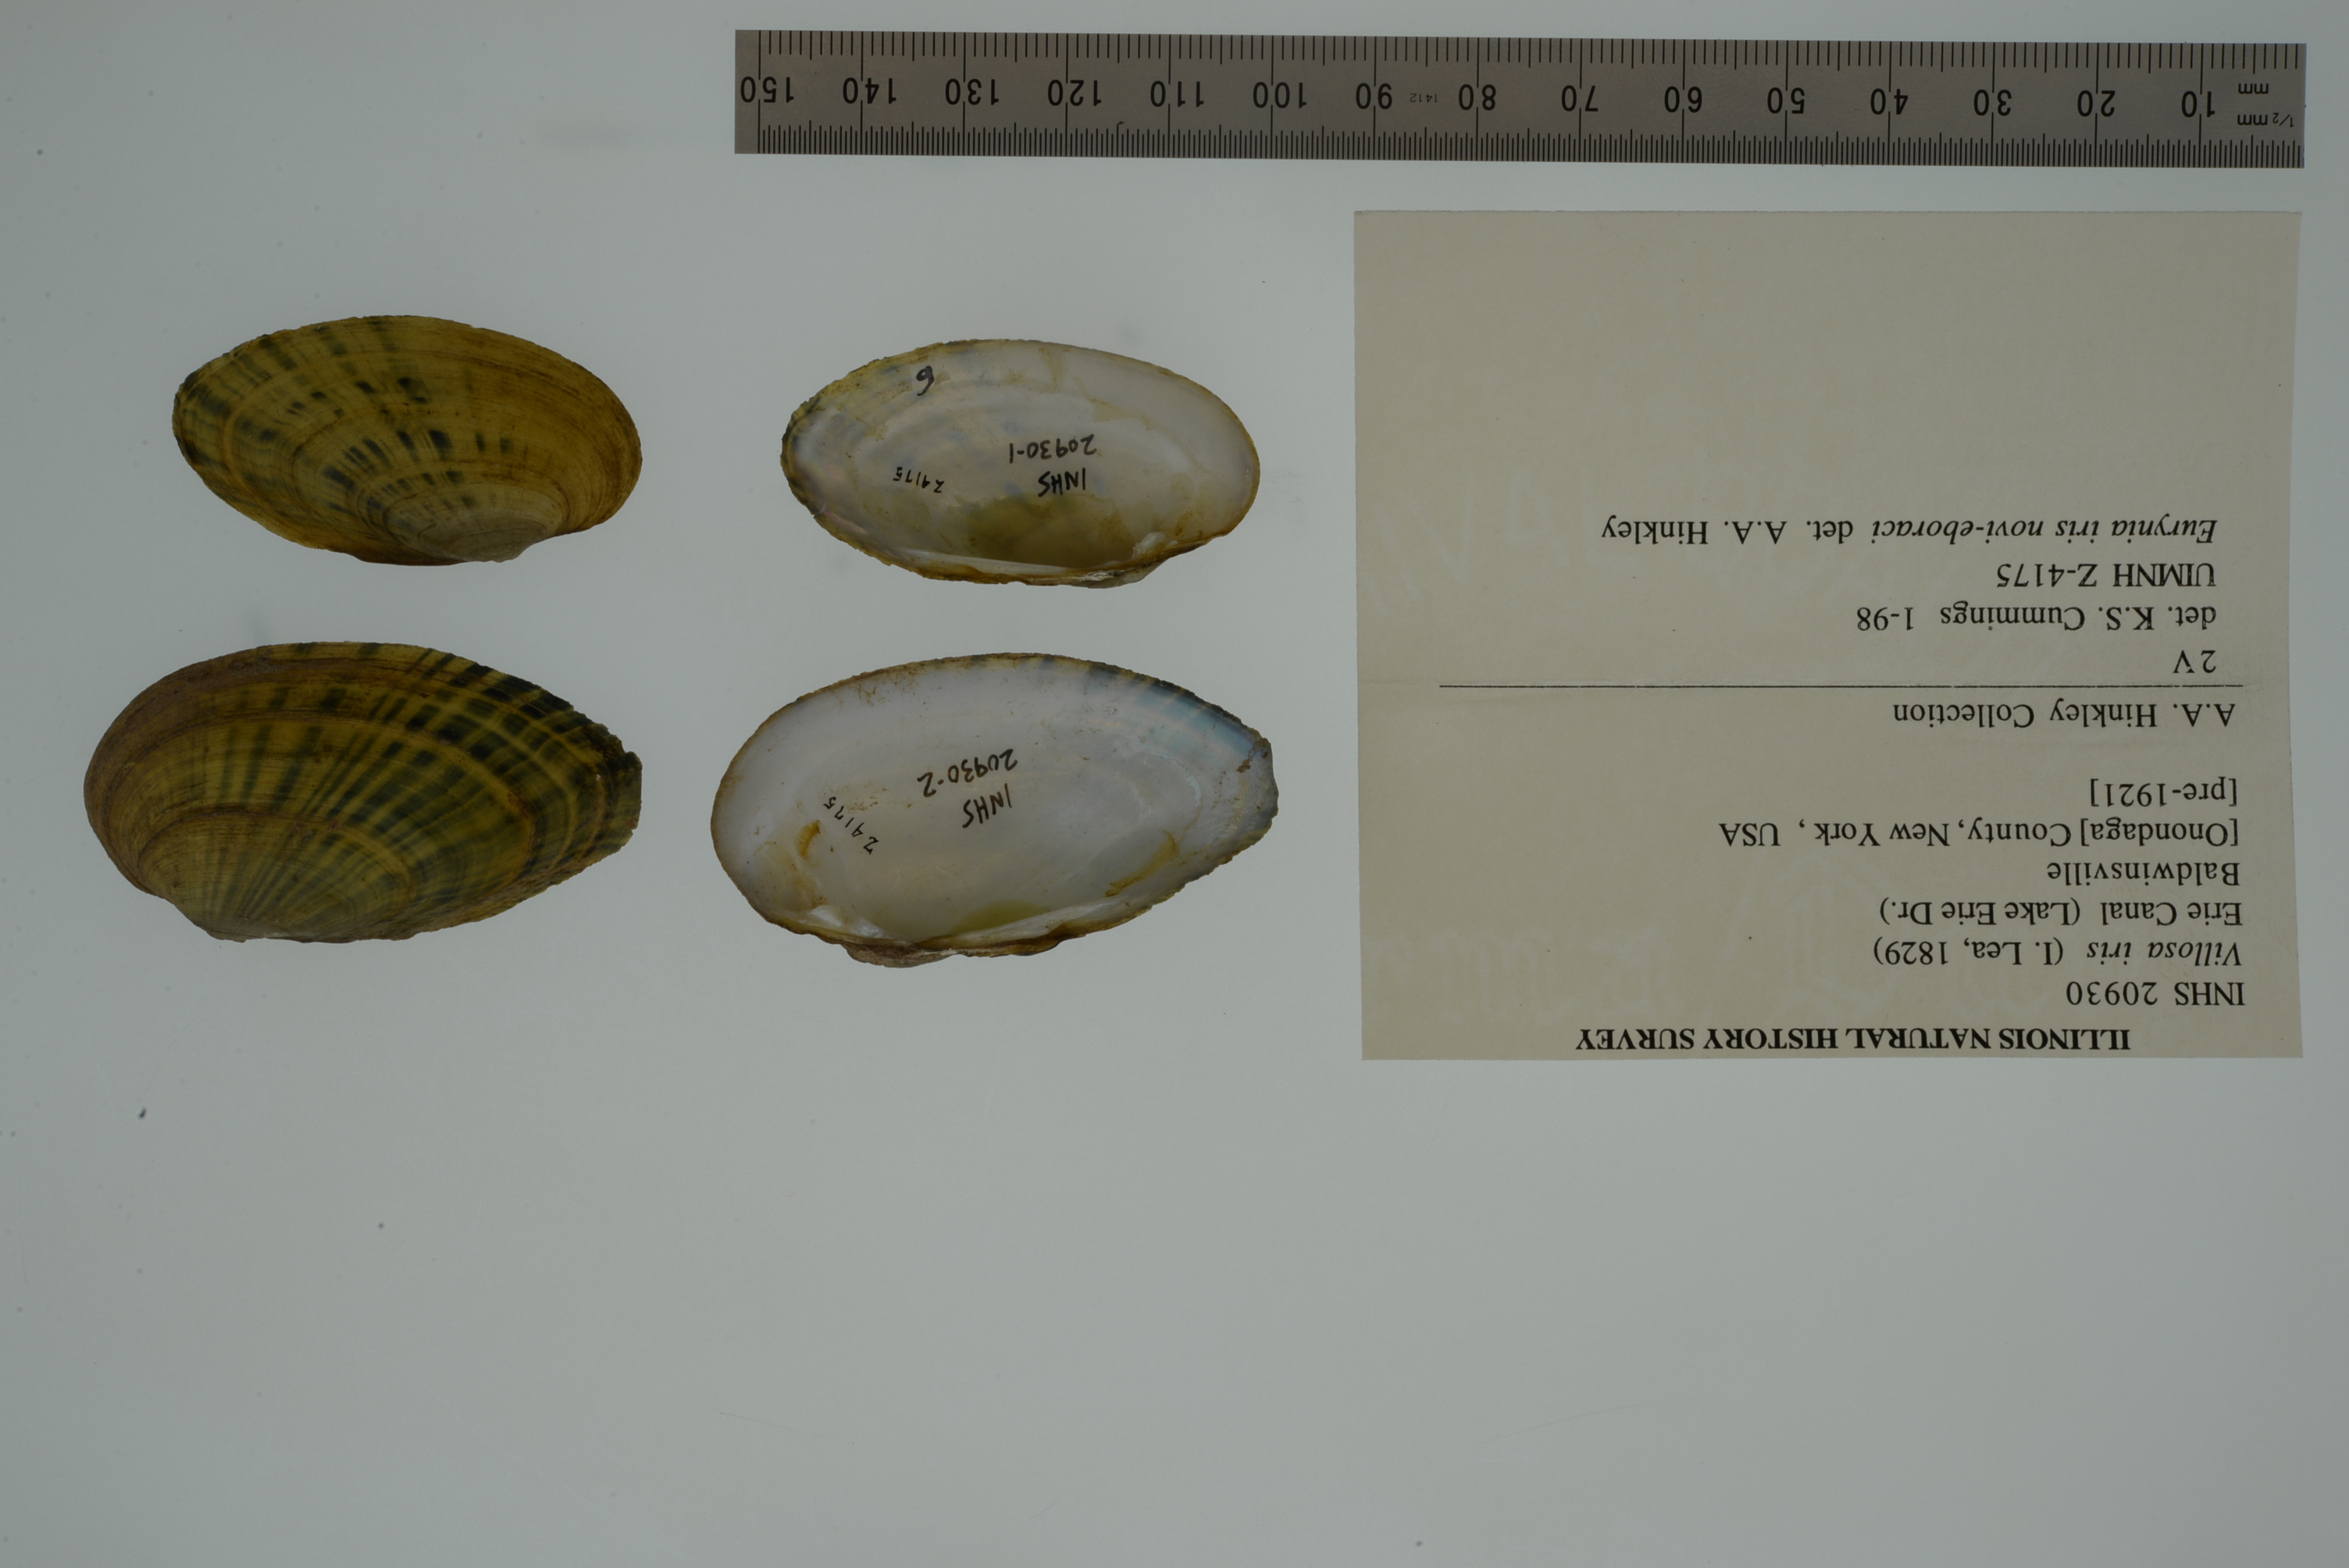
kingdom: Animalia
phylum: Mollusca
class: Bivalvia
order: Unionida
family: Unionidae
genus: Cambarunio
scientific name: Cambarunio iris
